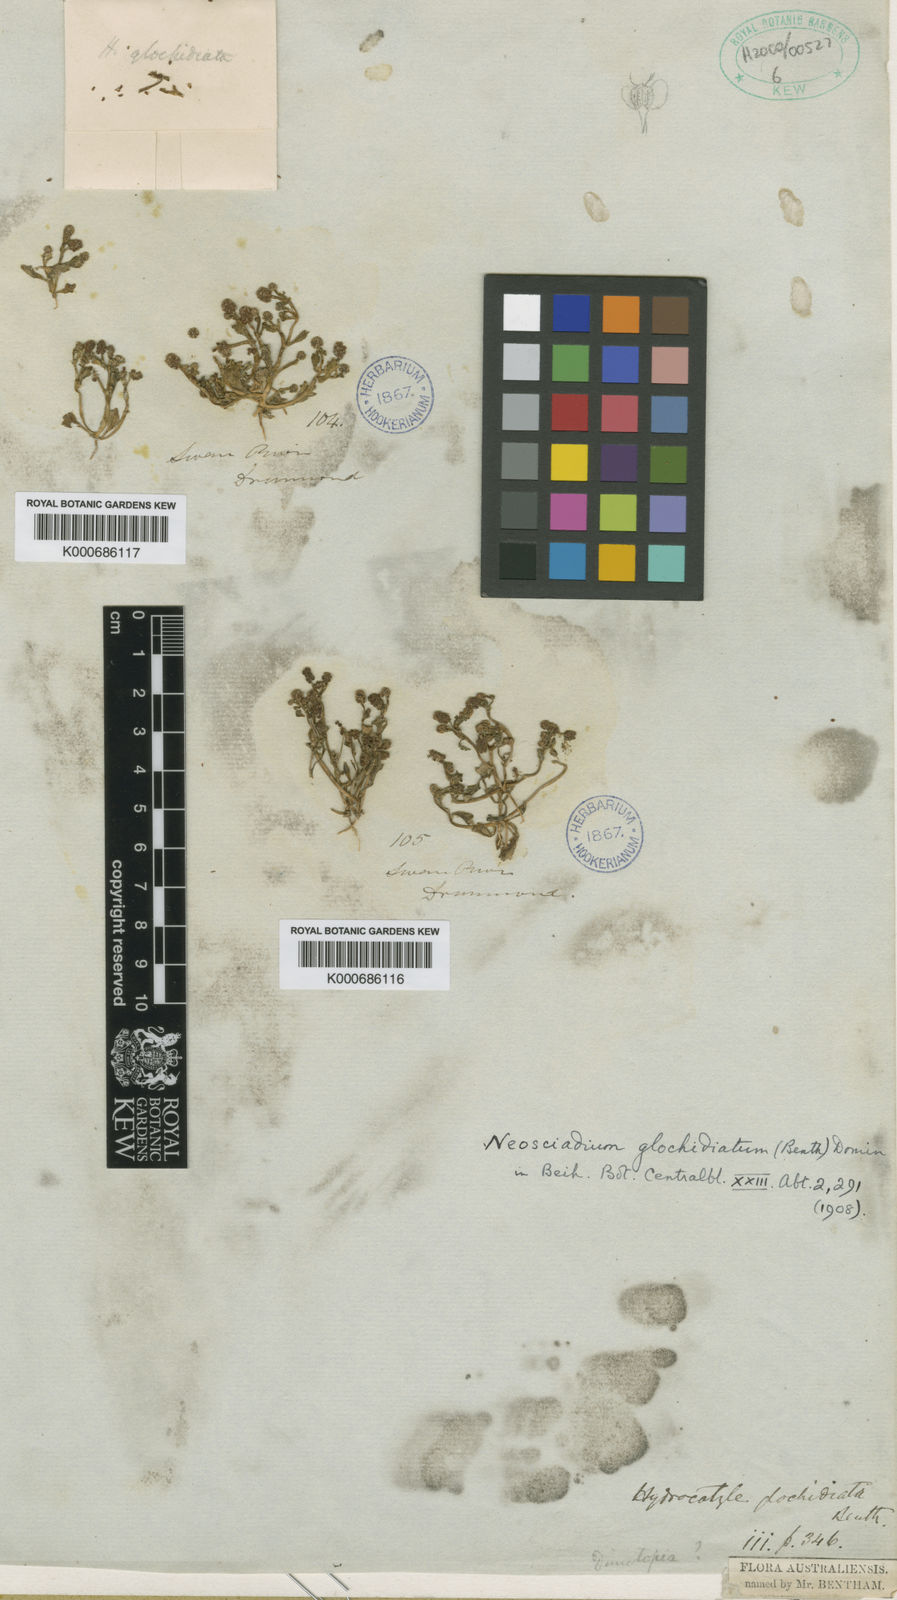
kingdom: Plantae
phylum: Tracheophyta
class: Magnoliopsida
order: Apiales
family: Araliaceae
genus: Hydrocotyle
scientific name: Hydrocotyle glochidiata
